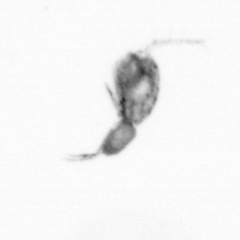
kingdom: Animalia
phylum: Arthropoda
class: Copepoda
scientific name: Copepoda
